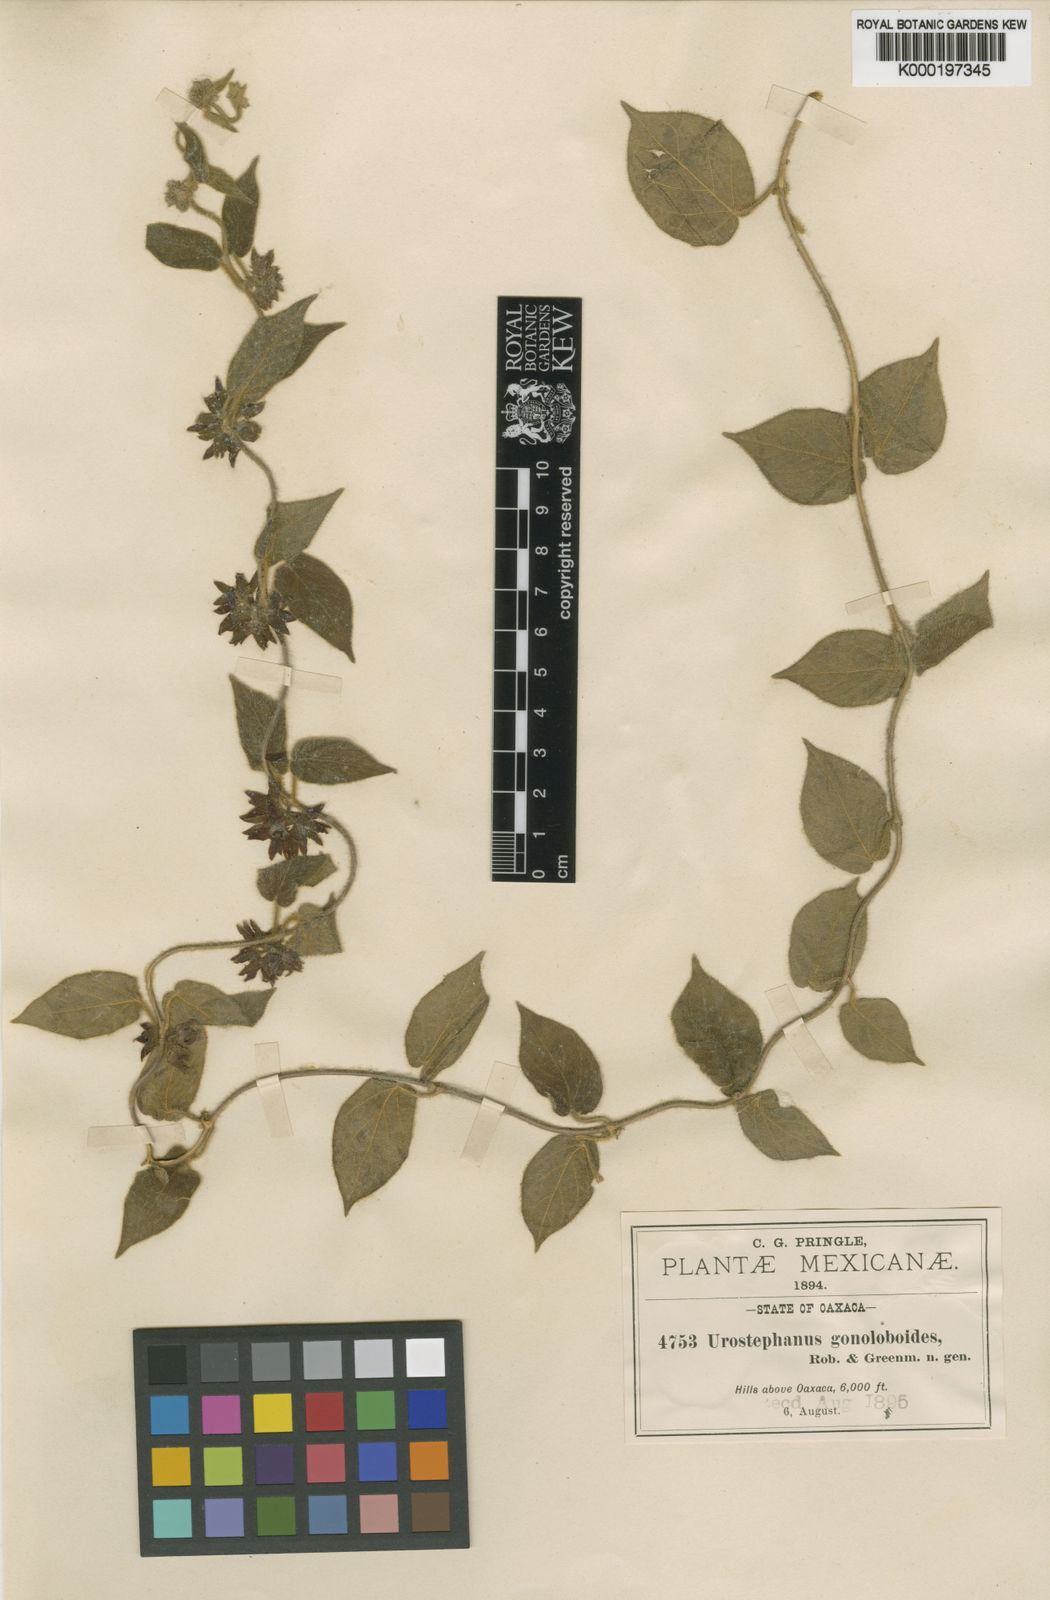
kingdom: Plantae
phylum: Tracheophyta
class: Magnoliopsida
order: Gentianales
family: Apocynaceae
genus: Matelea
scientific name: Matelea gonoloboides
